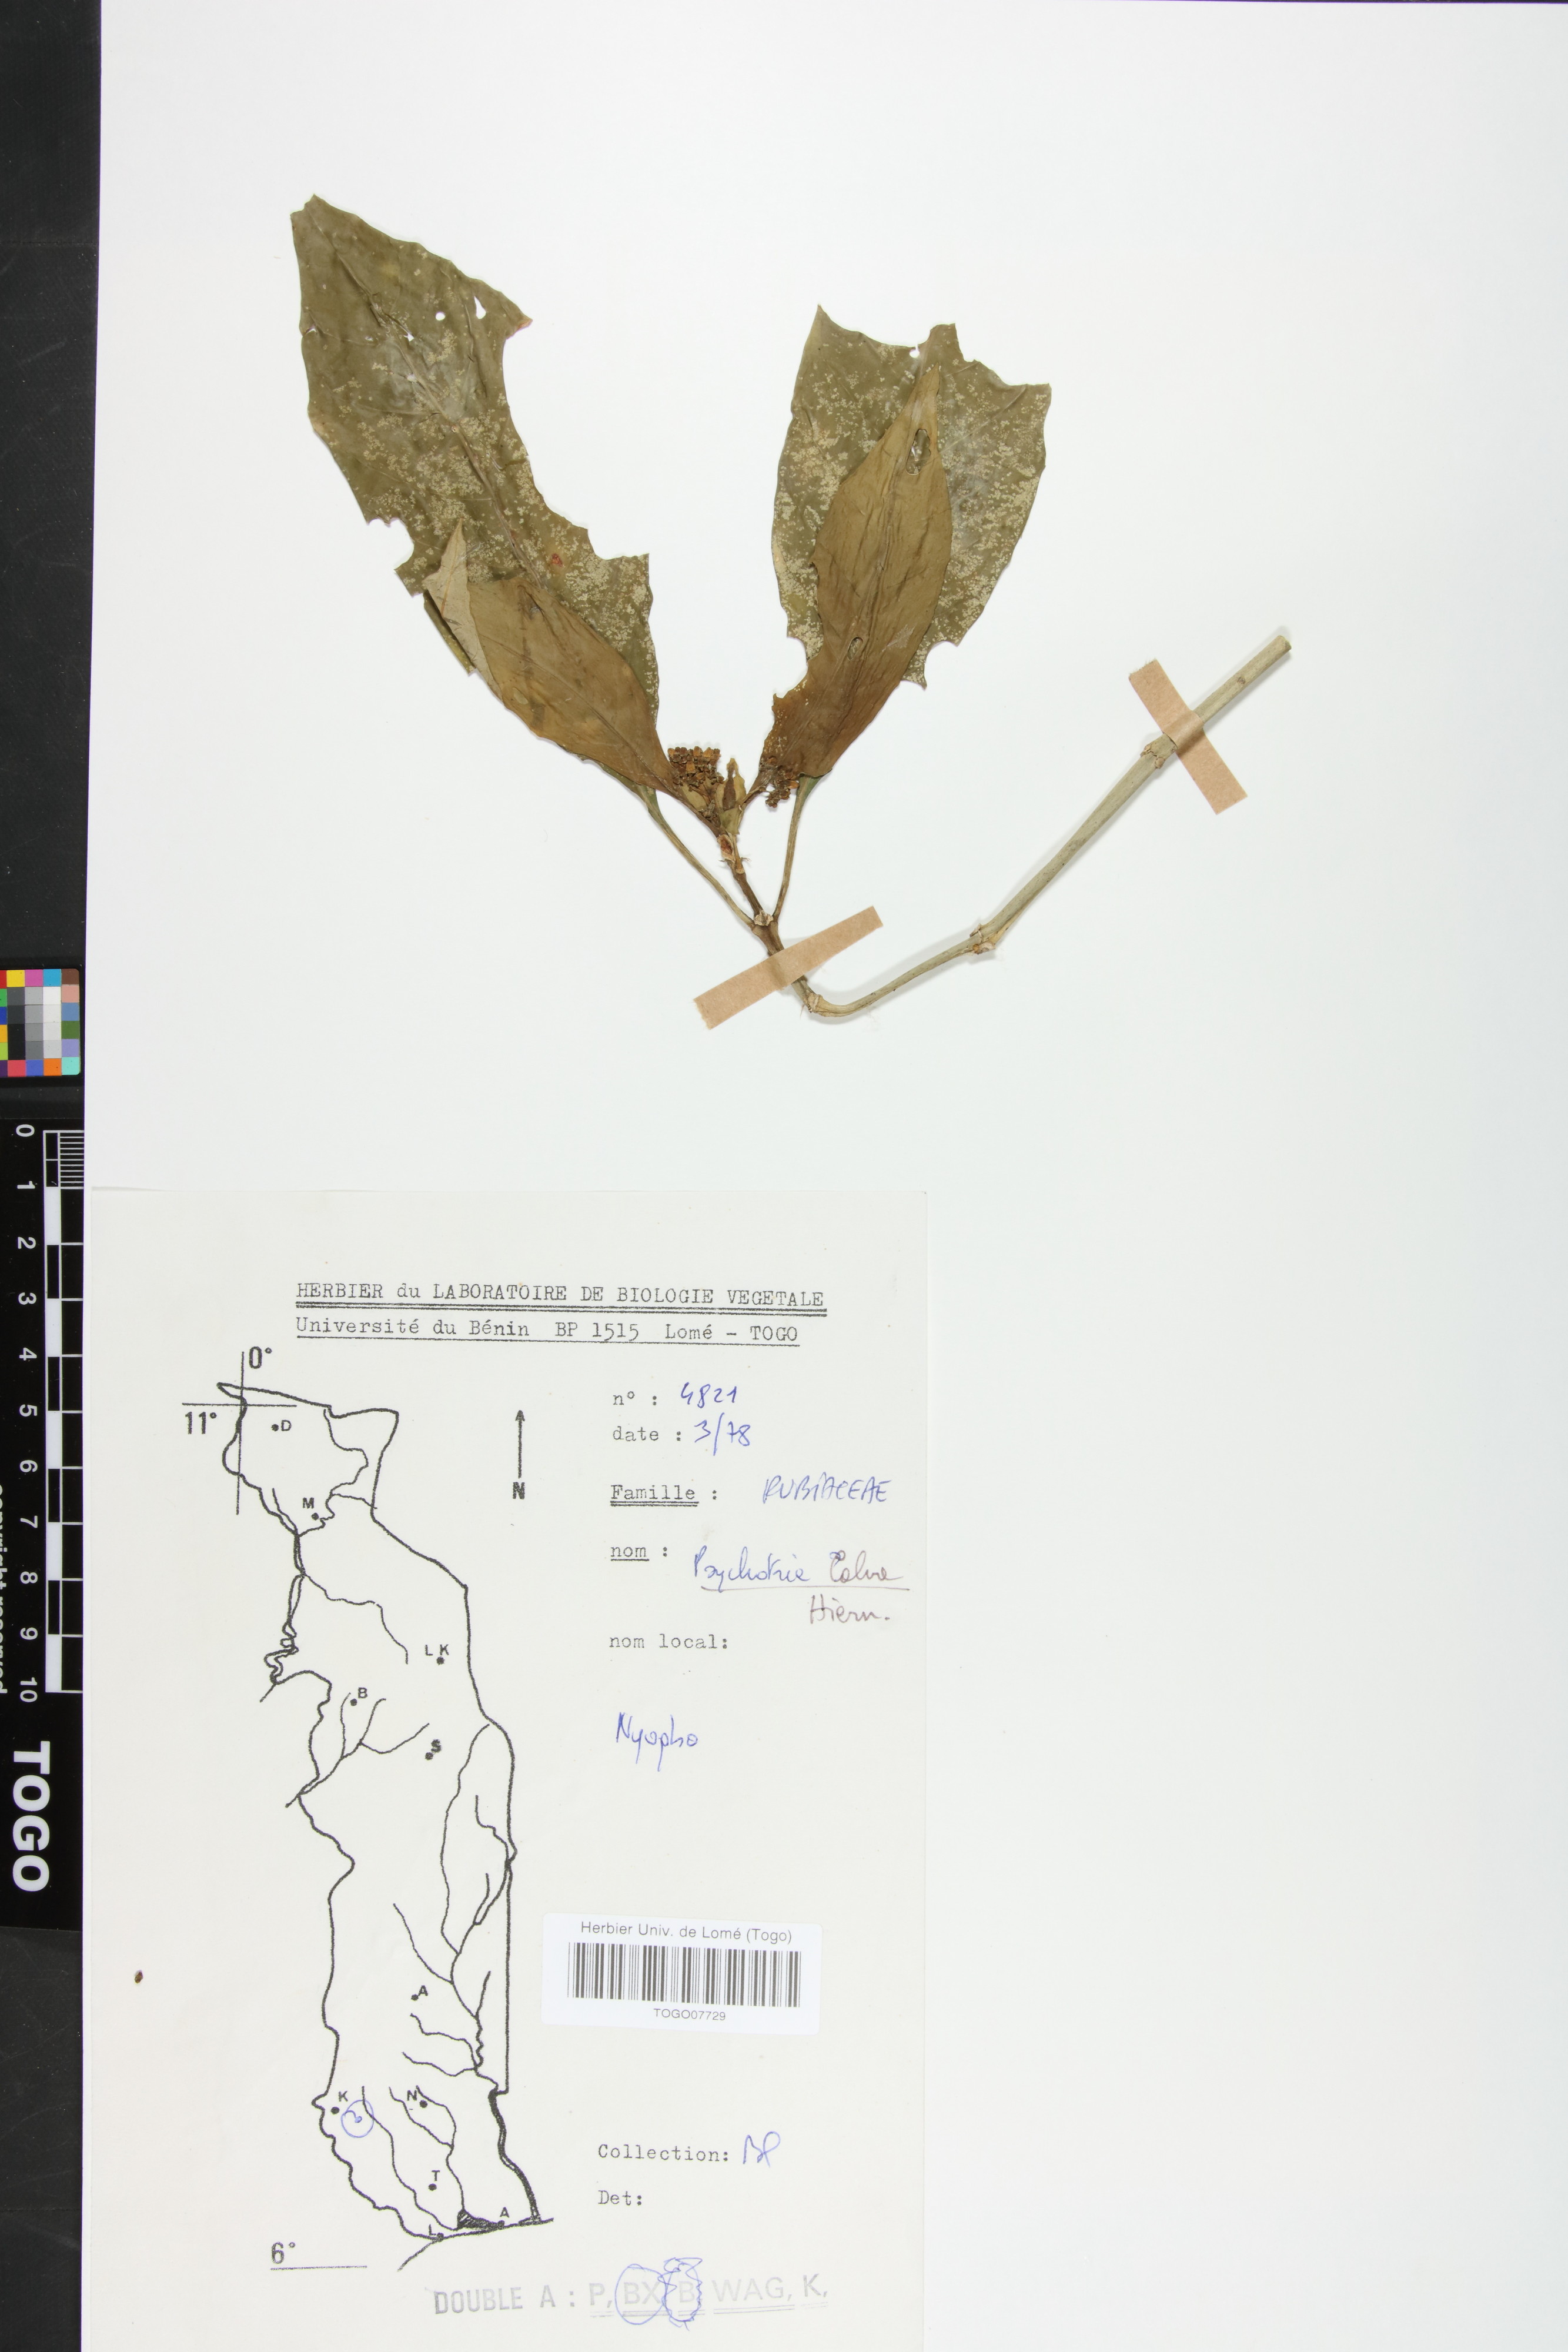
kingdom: Plantae
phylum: Tracheophyta
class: Magnoliopsida
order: Gentianales
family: Rubiaceae
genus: Psychotria
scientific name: Psychotria calva
